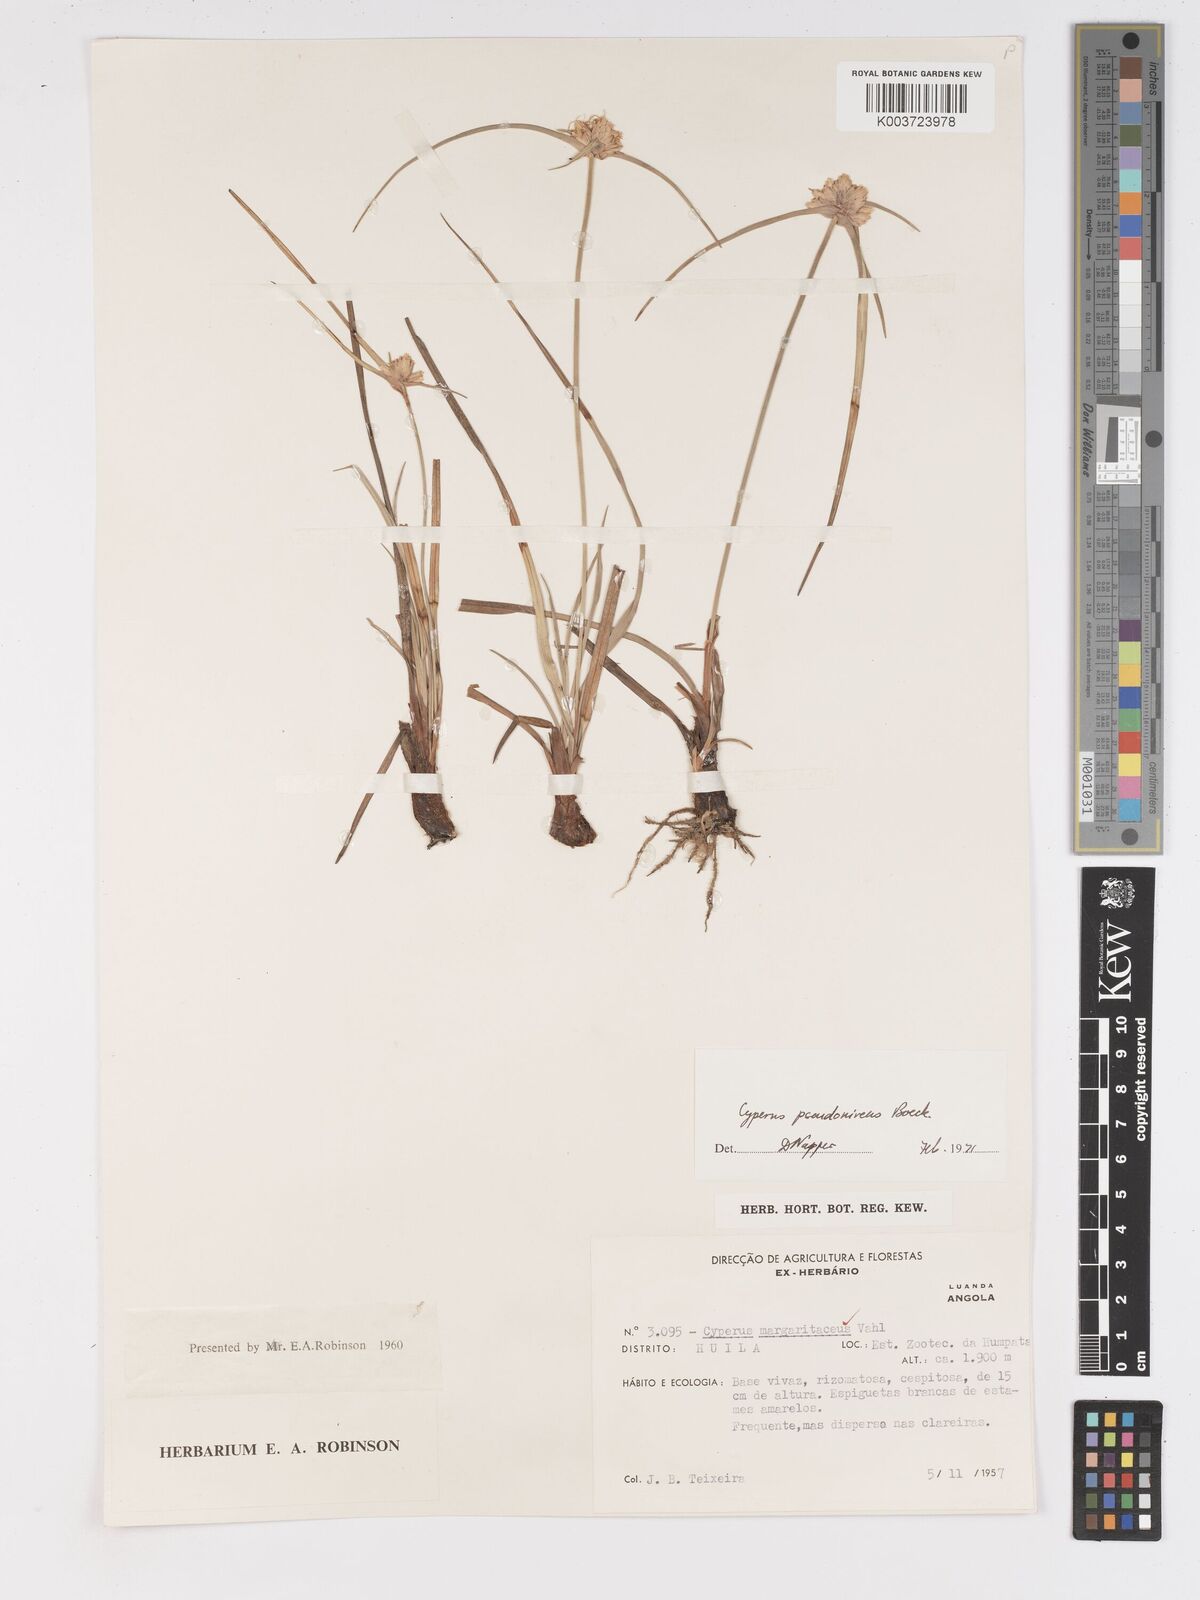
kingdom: Plantae
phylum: Tracheophyta
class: Liliopsida
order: Poales
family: Cyperaceae
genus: Cyperus
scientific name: Cyperus margaritaceus
